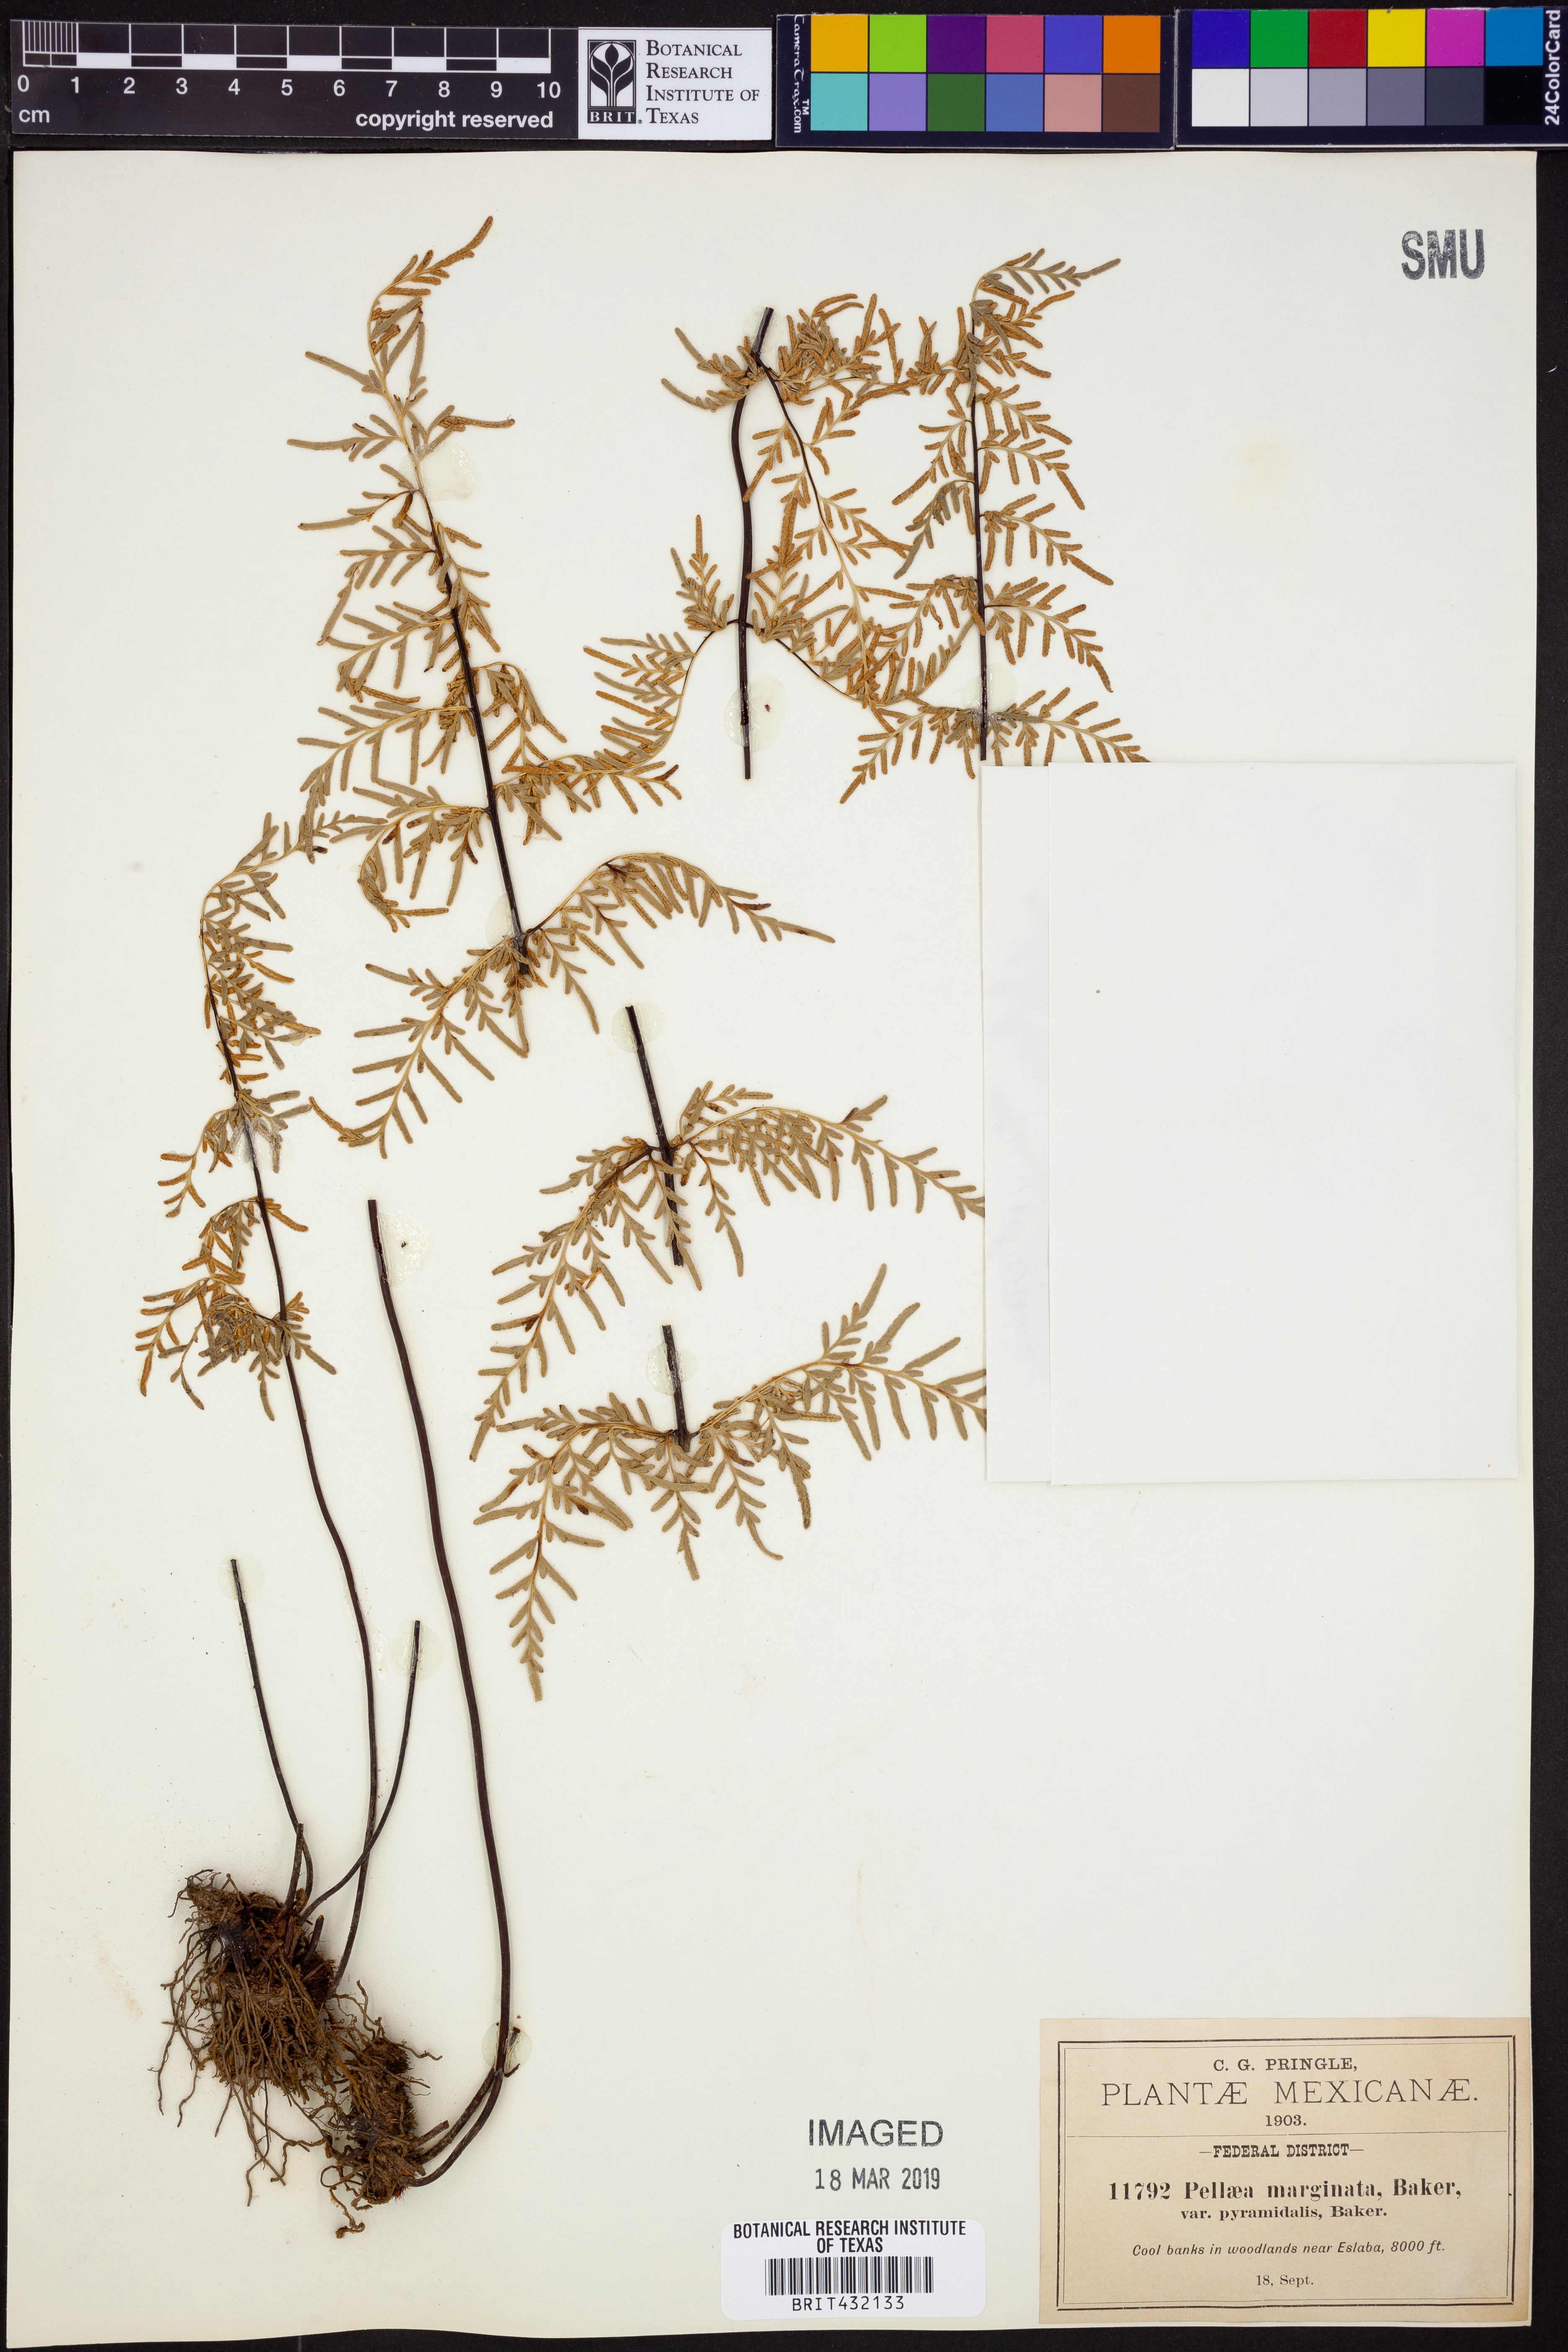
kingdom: Plantae
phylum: Tracheophyta
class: Polypodiopsida
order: Polypodiales
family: Pteridaceae
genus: Gaga
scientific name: Gaga hirsuta
